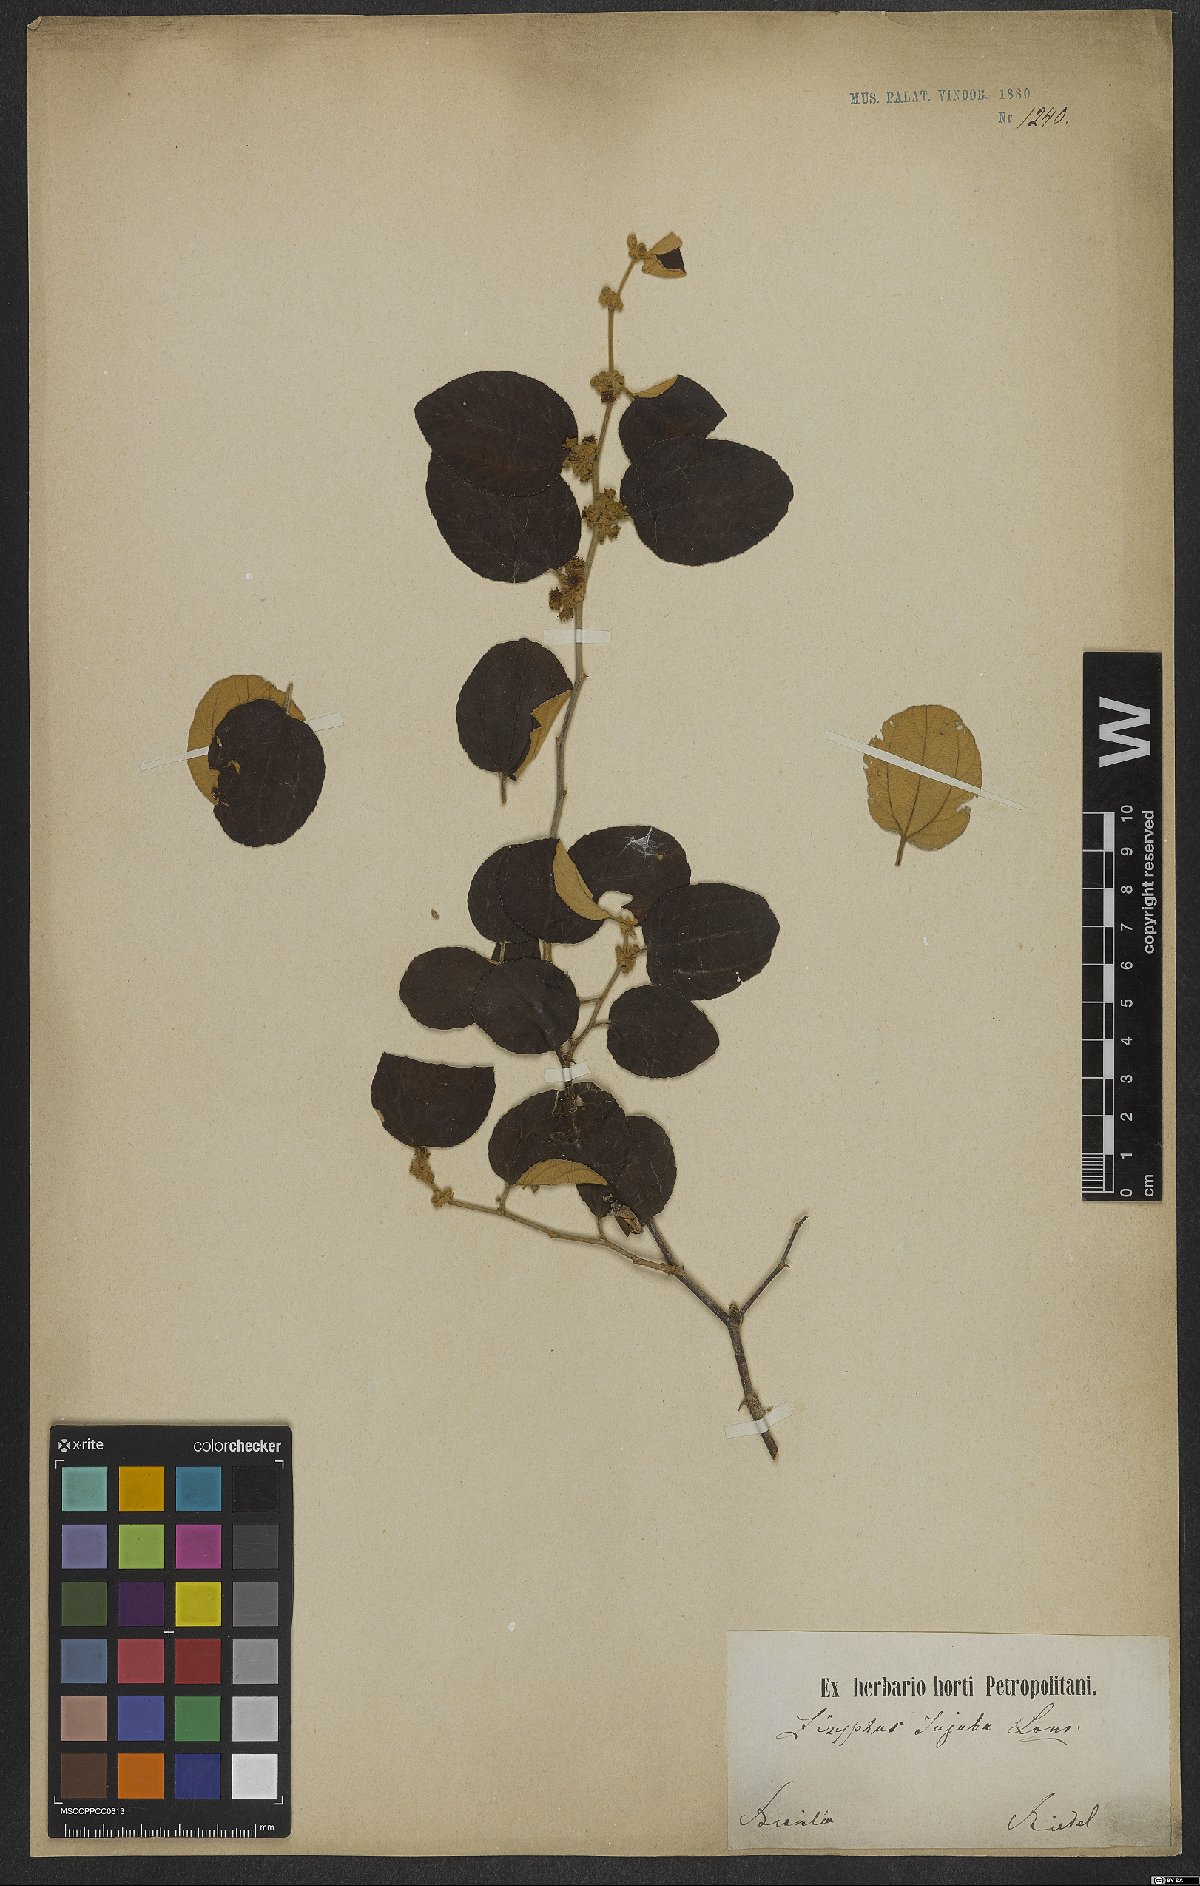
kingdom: Plantae
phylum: Tracheophyta
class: Magnoliopsida
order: Rosales
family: Rhamnaceae
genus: Ziziphus
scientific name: Ziziphus mauritiana
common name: Indian jujube
